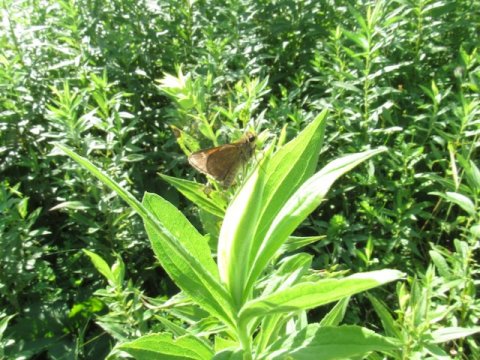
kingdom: Animalia
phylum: Arthropoda
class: Insecta
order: Lepidoptera
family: Hesperiidae
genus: Polites
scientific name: Polites themistocles
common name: Tawny-edged Skipper
